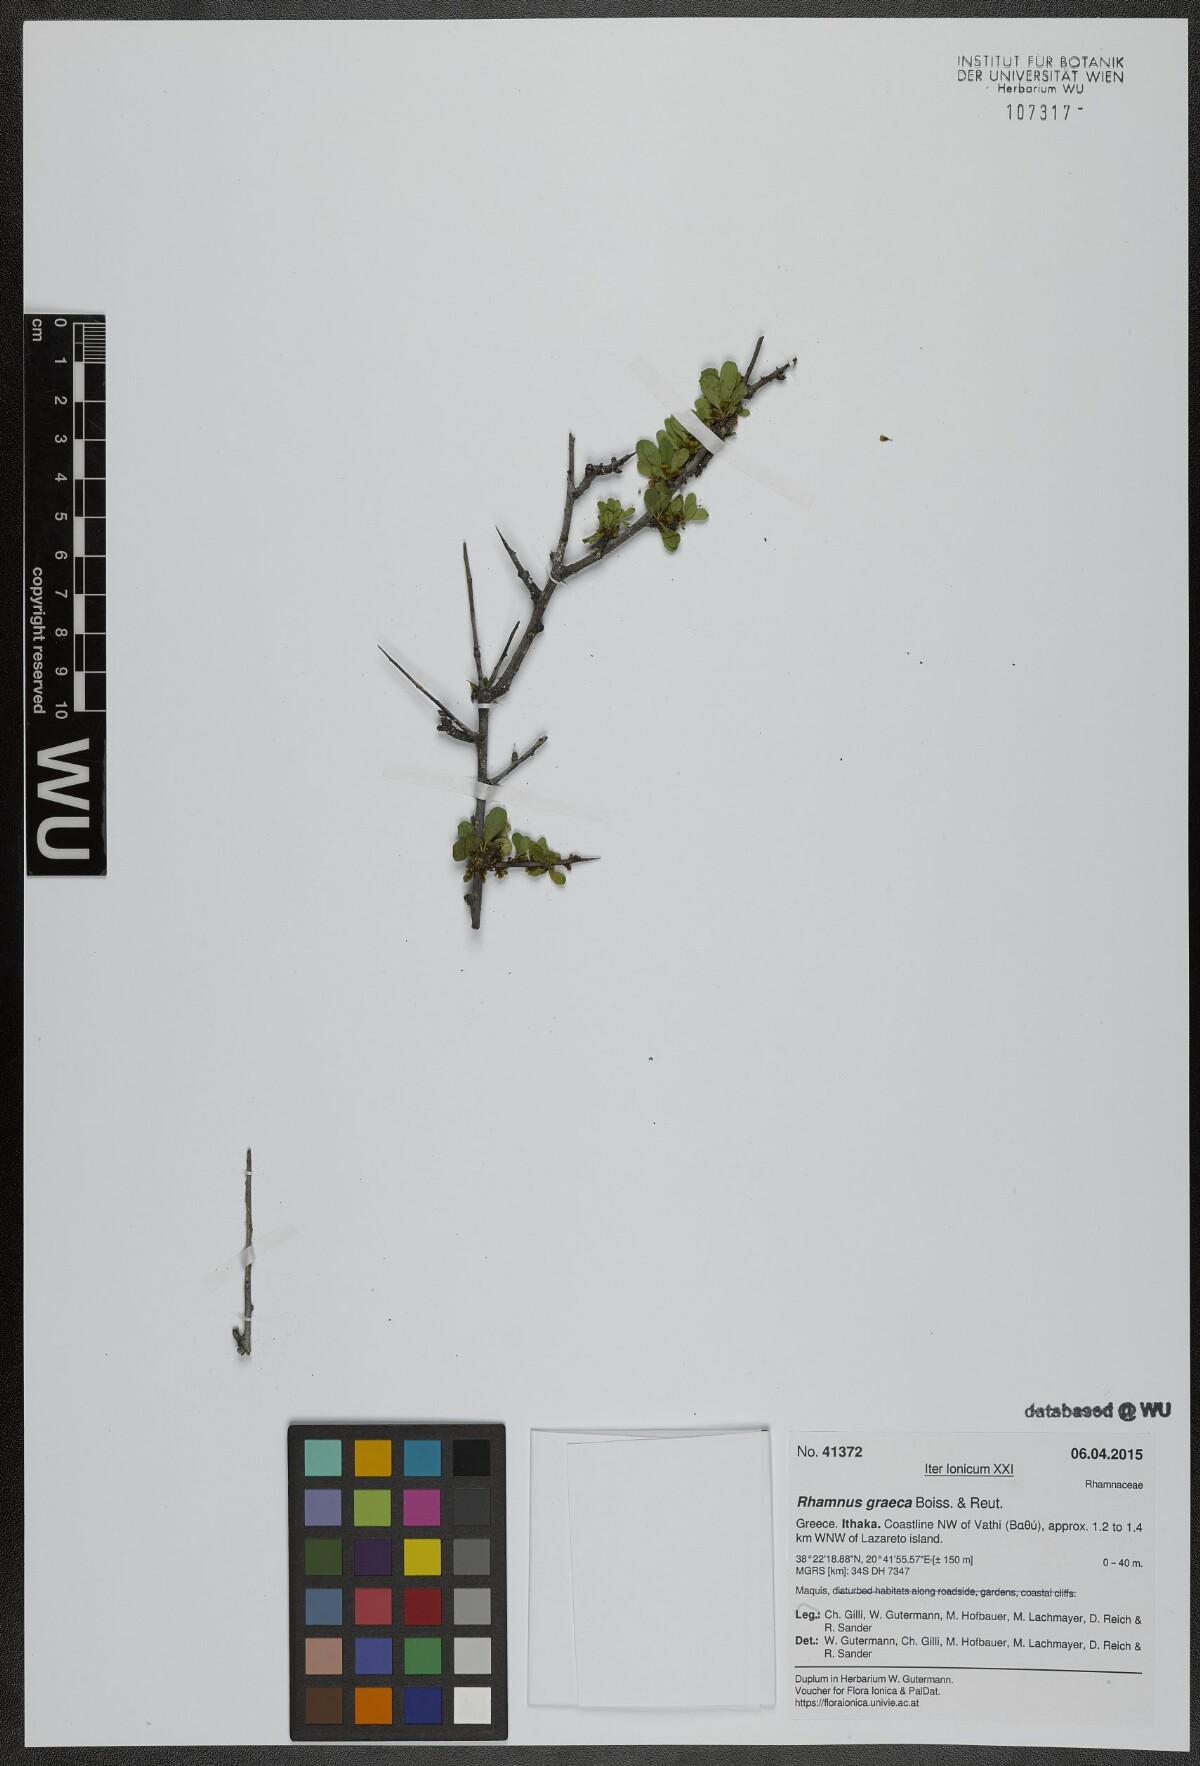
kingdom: Plantae
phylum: Tracheophyta
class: Magnoliopsida
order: Rosales
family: Rhamnaceae
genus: Rhamnus
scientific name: Rhamnus
